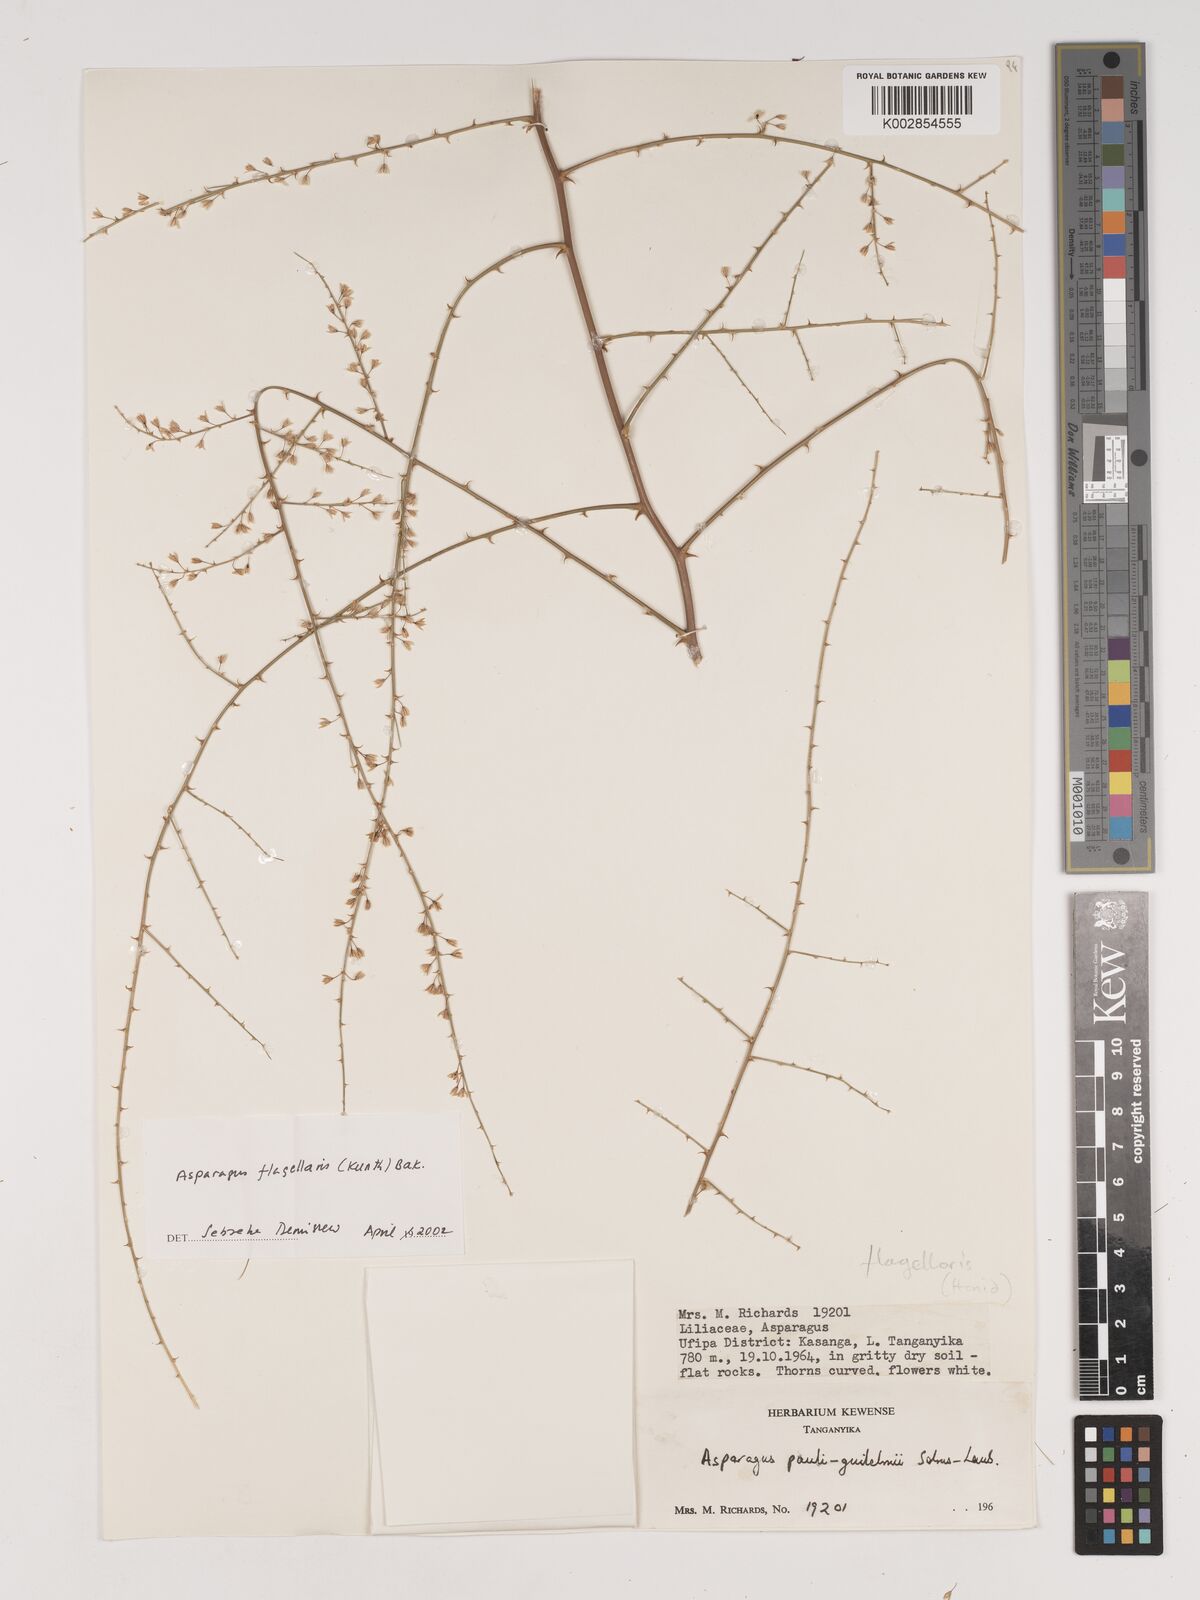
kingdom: Plantae
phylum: Tracheophyta
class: Liliopsida
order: Asparagales
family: Asparagaceae
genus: Asparagus
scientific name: Asparagus flagellaris
